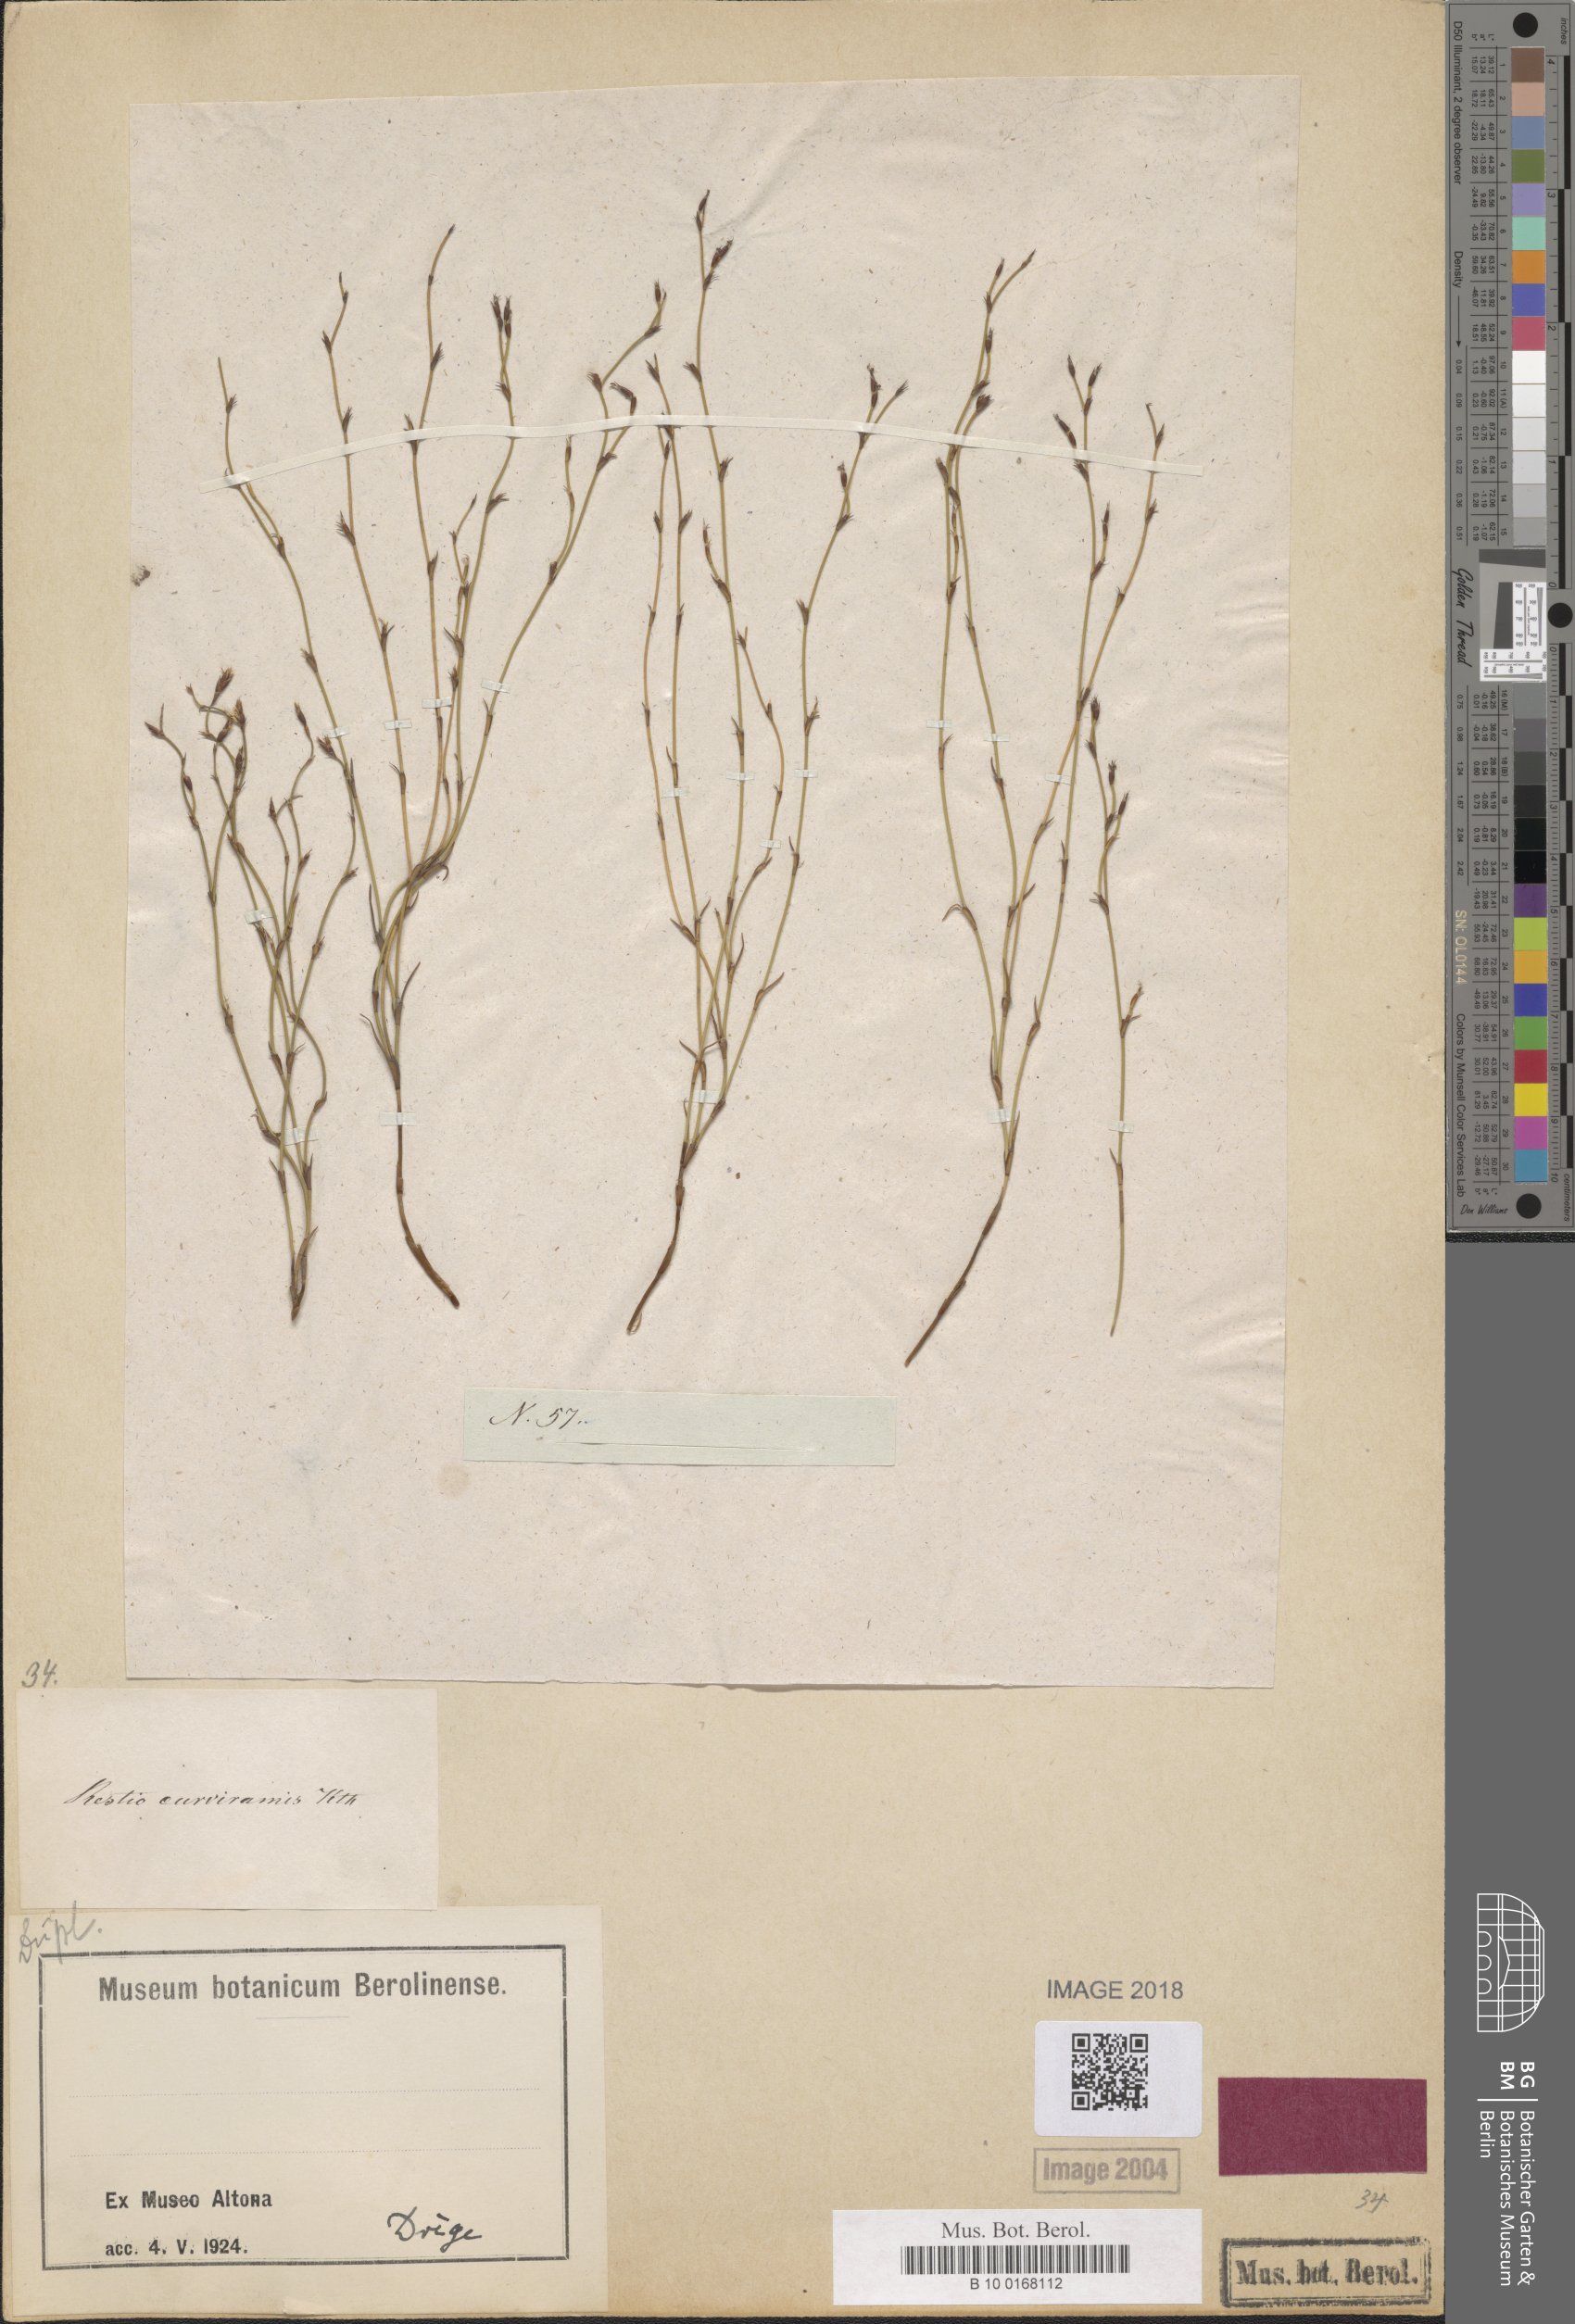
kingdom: Plantae
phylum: Tracheophyta
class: Liliopsida
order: Poales
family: Restionaceae
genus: Restio
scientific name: Restio curviramis
